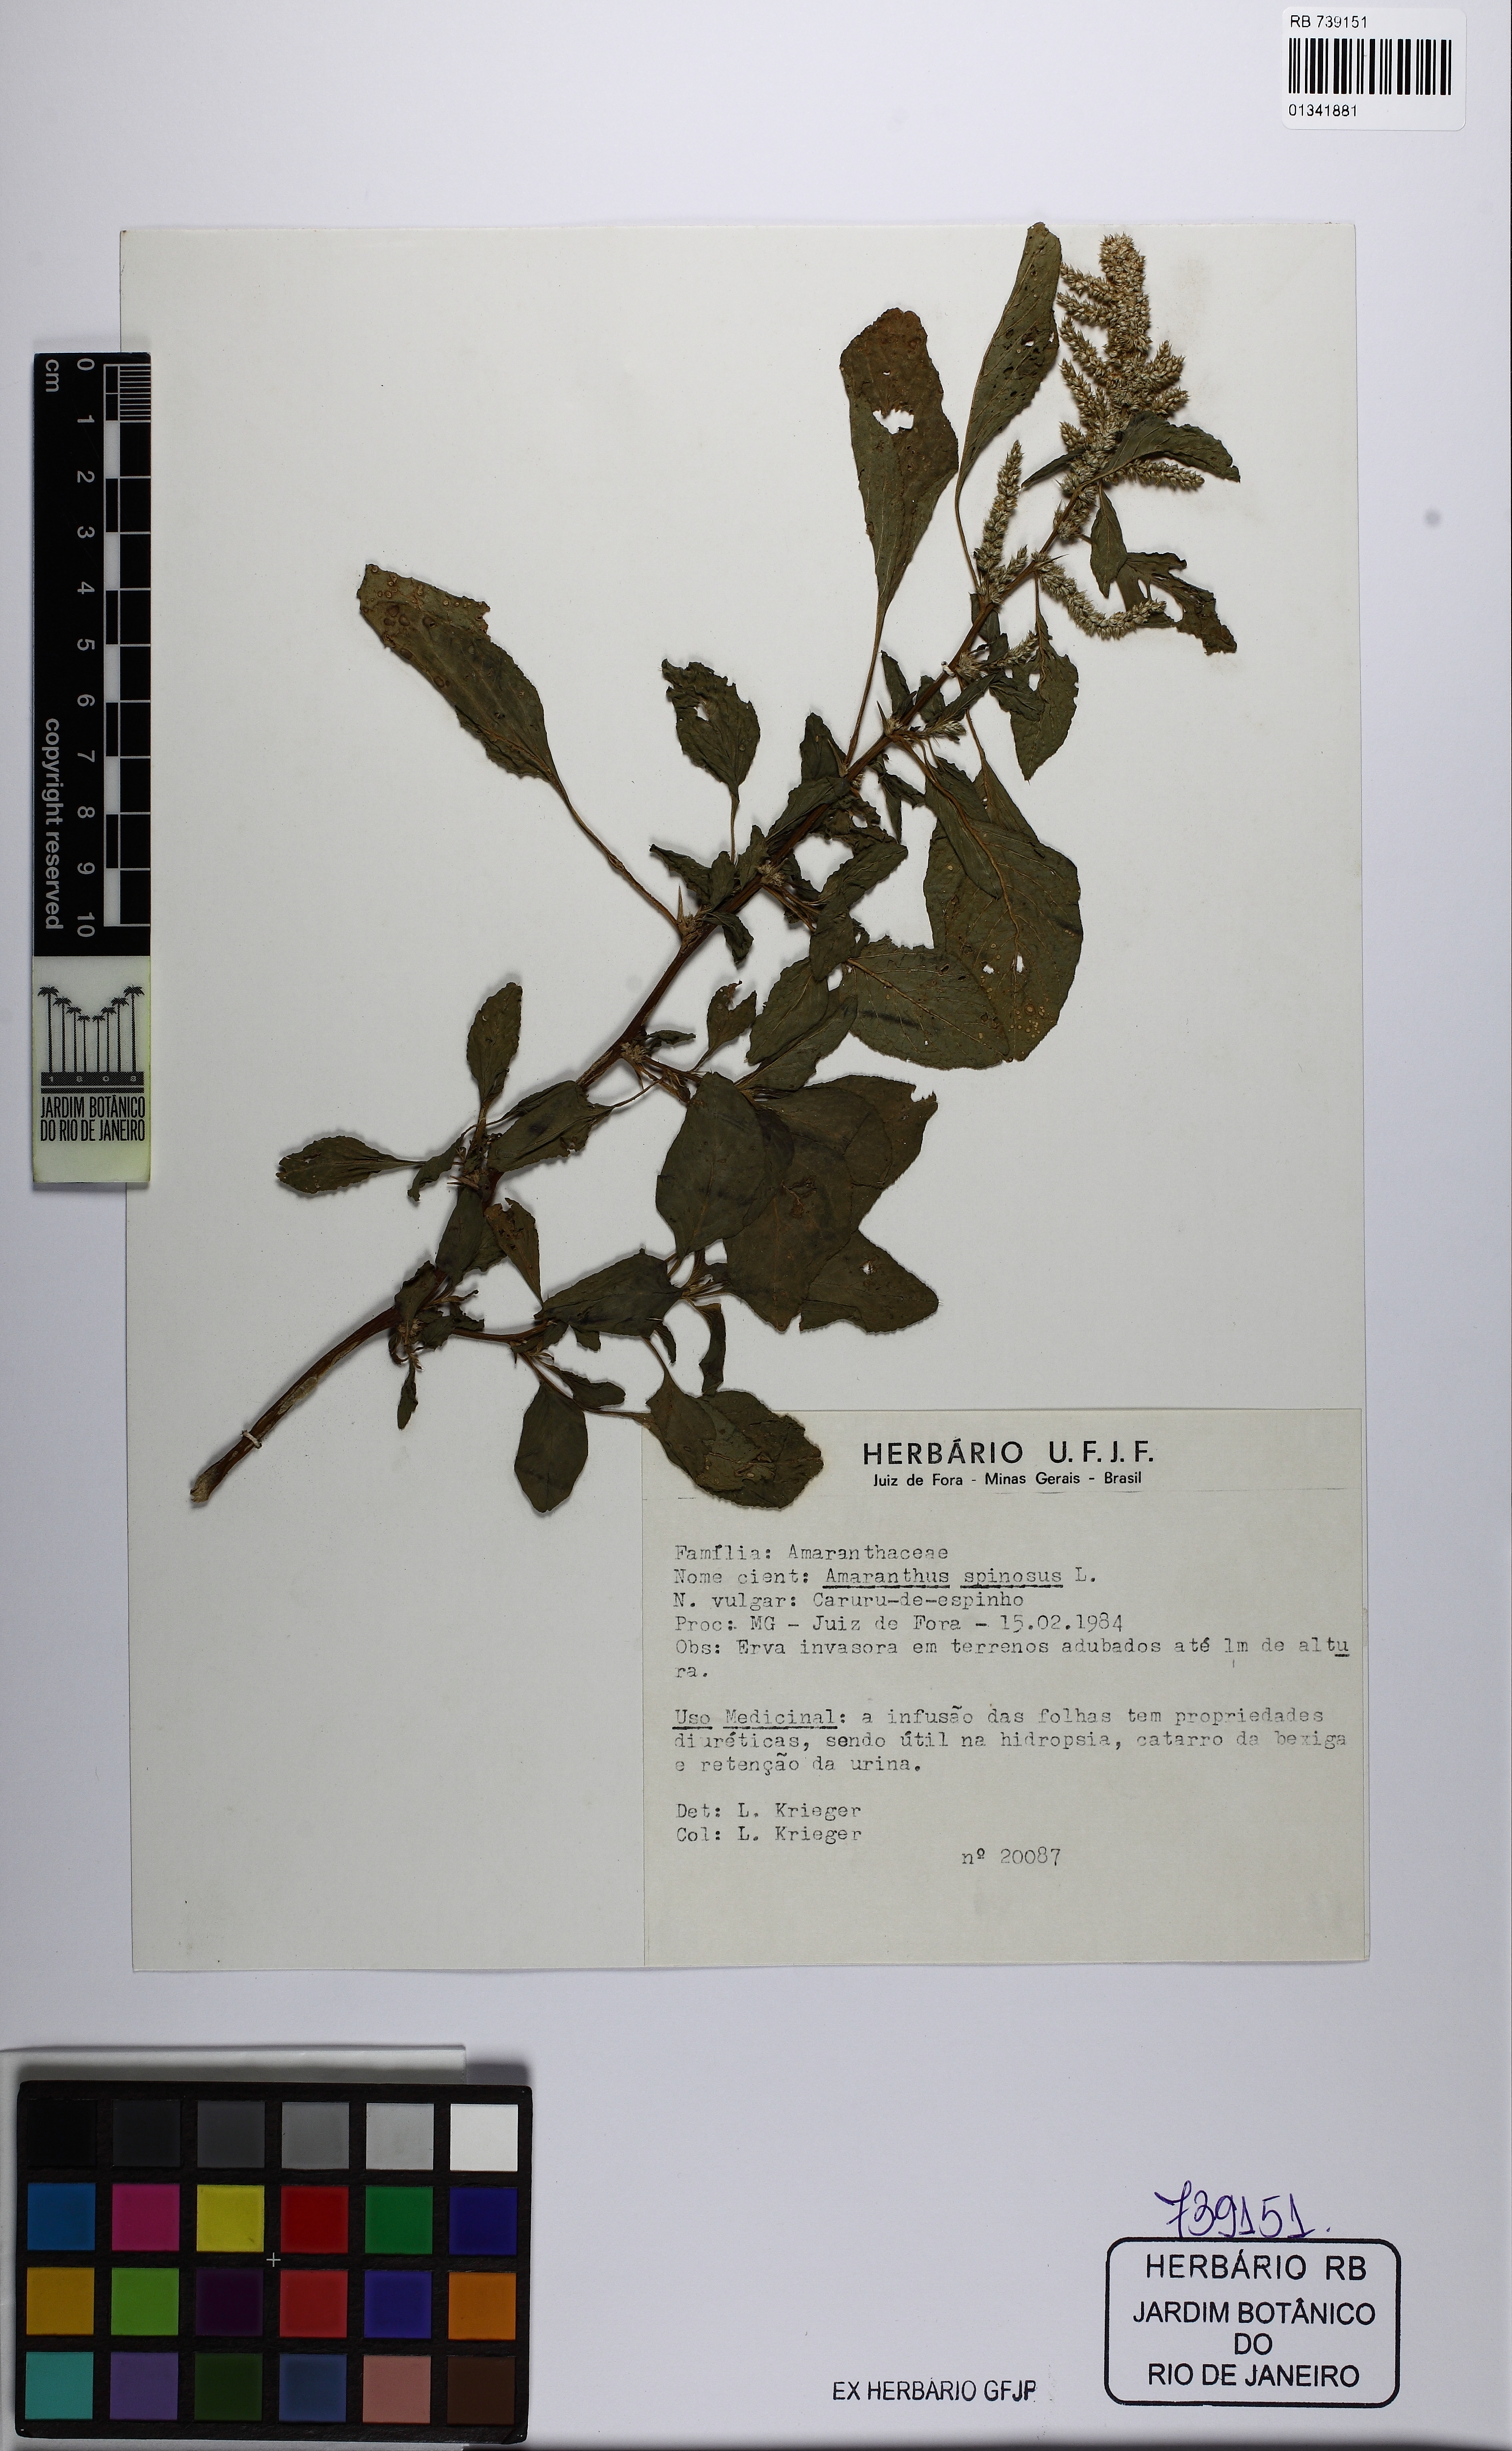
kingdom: Plantae
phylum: Tracheophyta
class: Magnoliopsida
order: Caryophyllales
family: Amaranthaceae
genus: Amaranthus
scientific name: Amaranthus spinosus
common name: Spiny amaranth
